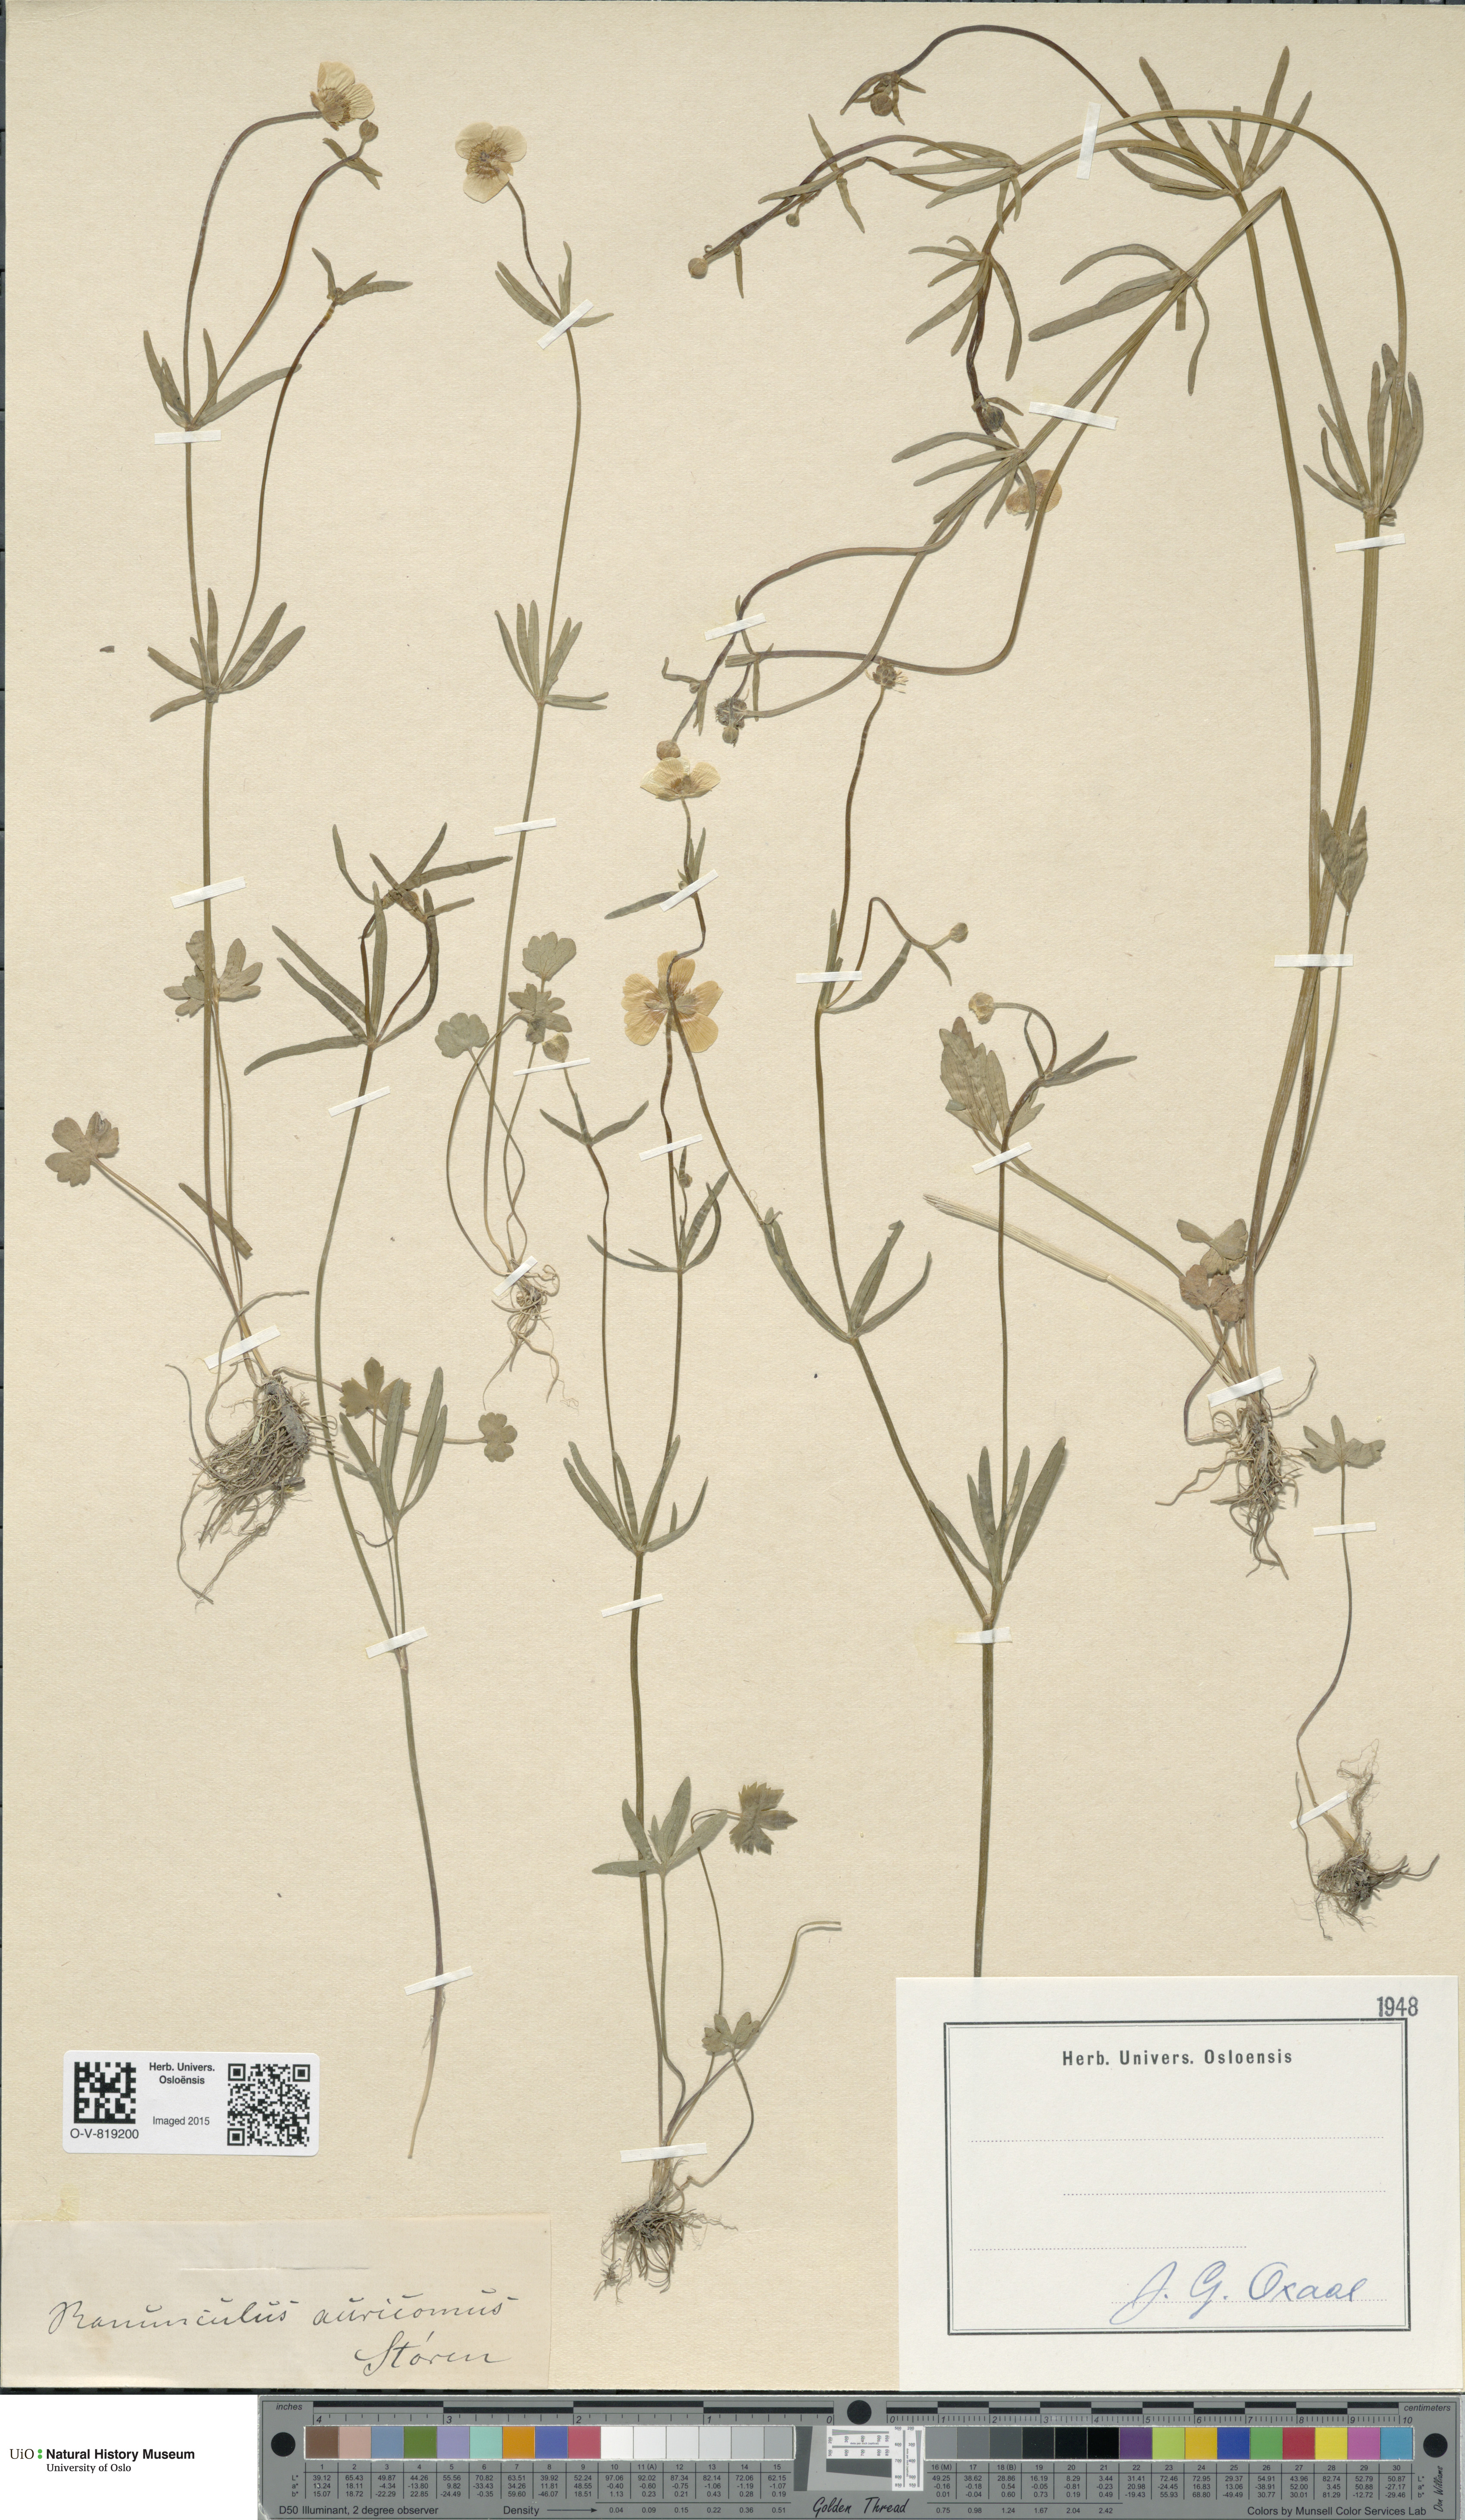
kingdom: Plantae
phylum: Tracheophyta
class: Magnoliopsida
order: Ranunculales
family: Ranunculaceae
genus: Ranunculus
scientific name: Ranunculus auricomus
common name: Goldilocks buttercup
